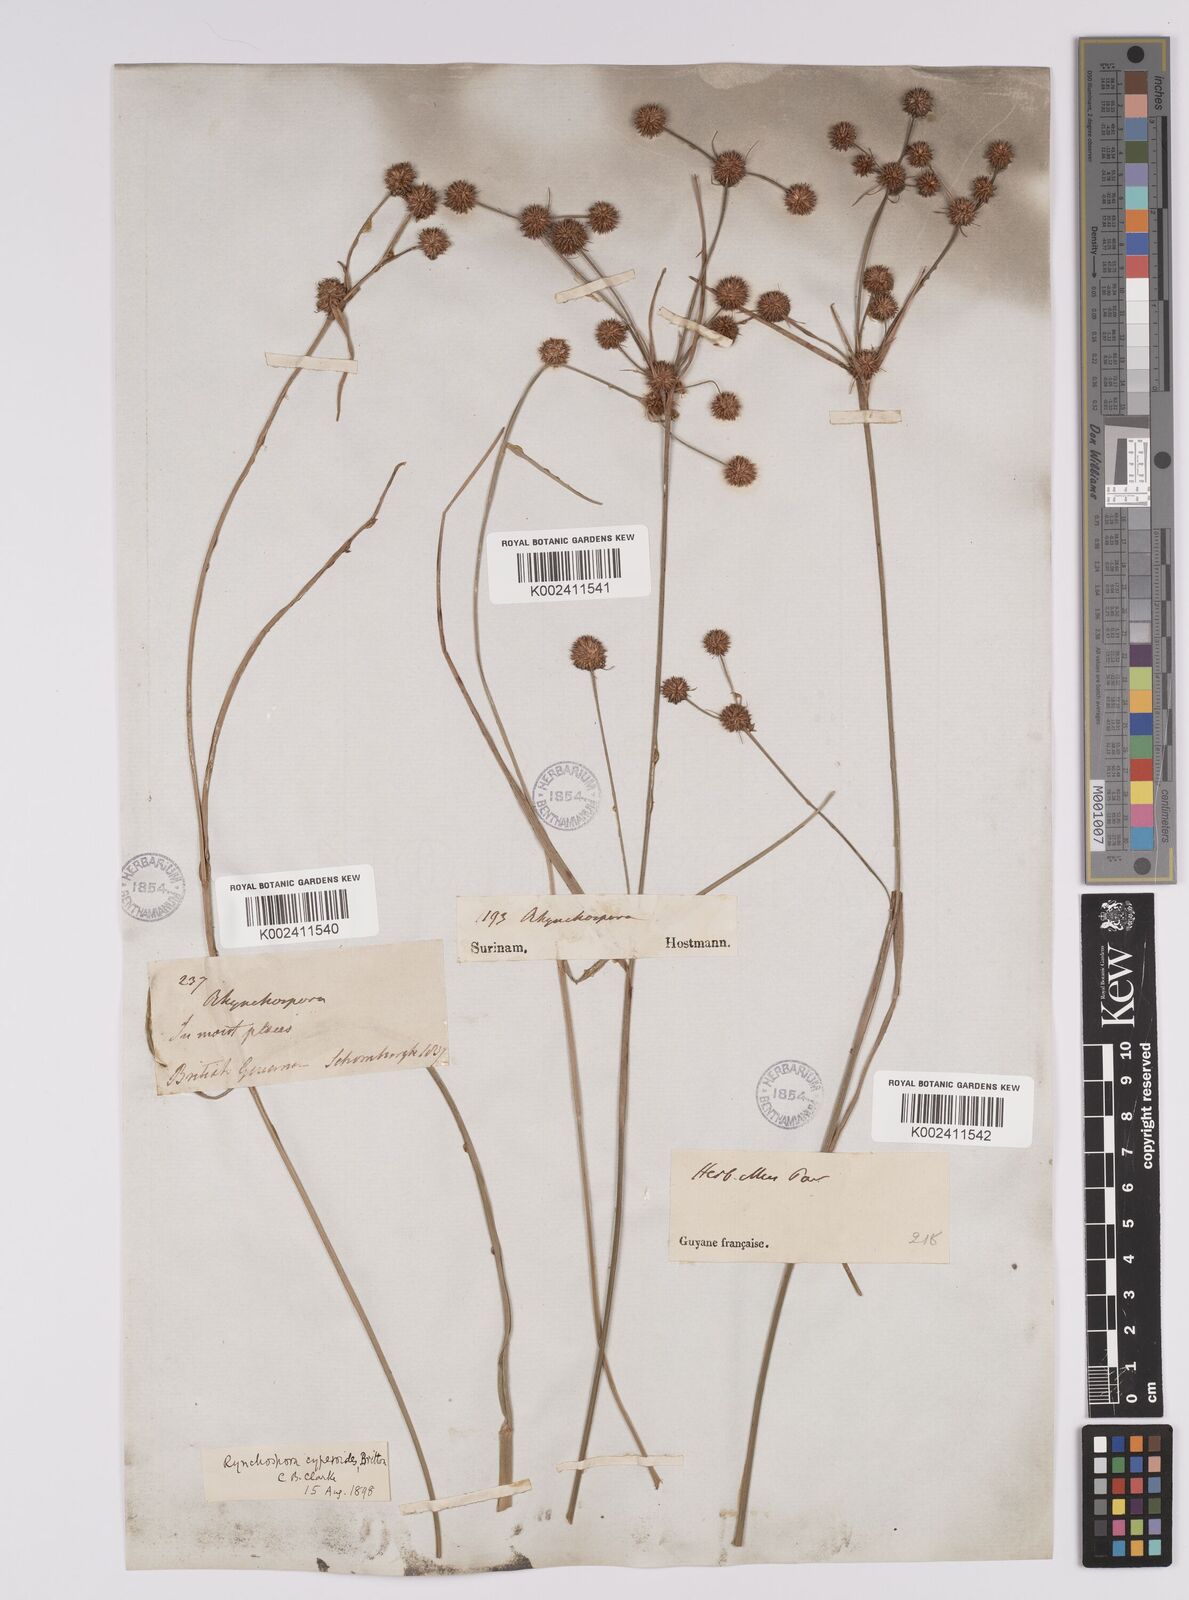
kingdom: Plantae
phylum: Tracheophyta
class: Liliopsida
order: Poales
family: Cyperaceae
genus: Rhynchospora
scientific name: Rhynchospora holoschoenoides
